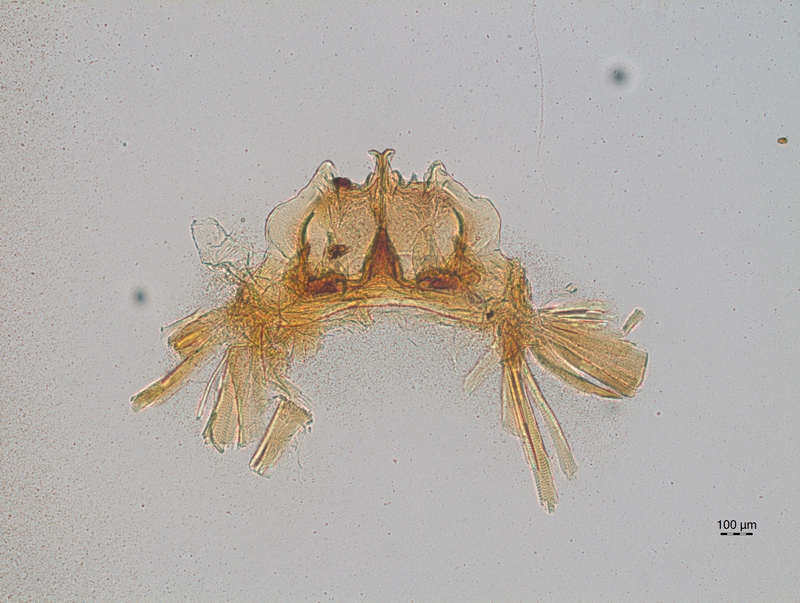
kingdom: Animalia
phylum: Arthropoda
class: Diplopoda
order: Chordeumatida
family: Craspedosomatidae
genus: Craspedosoma
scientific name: Craspedosoma rawlinsii
